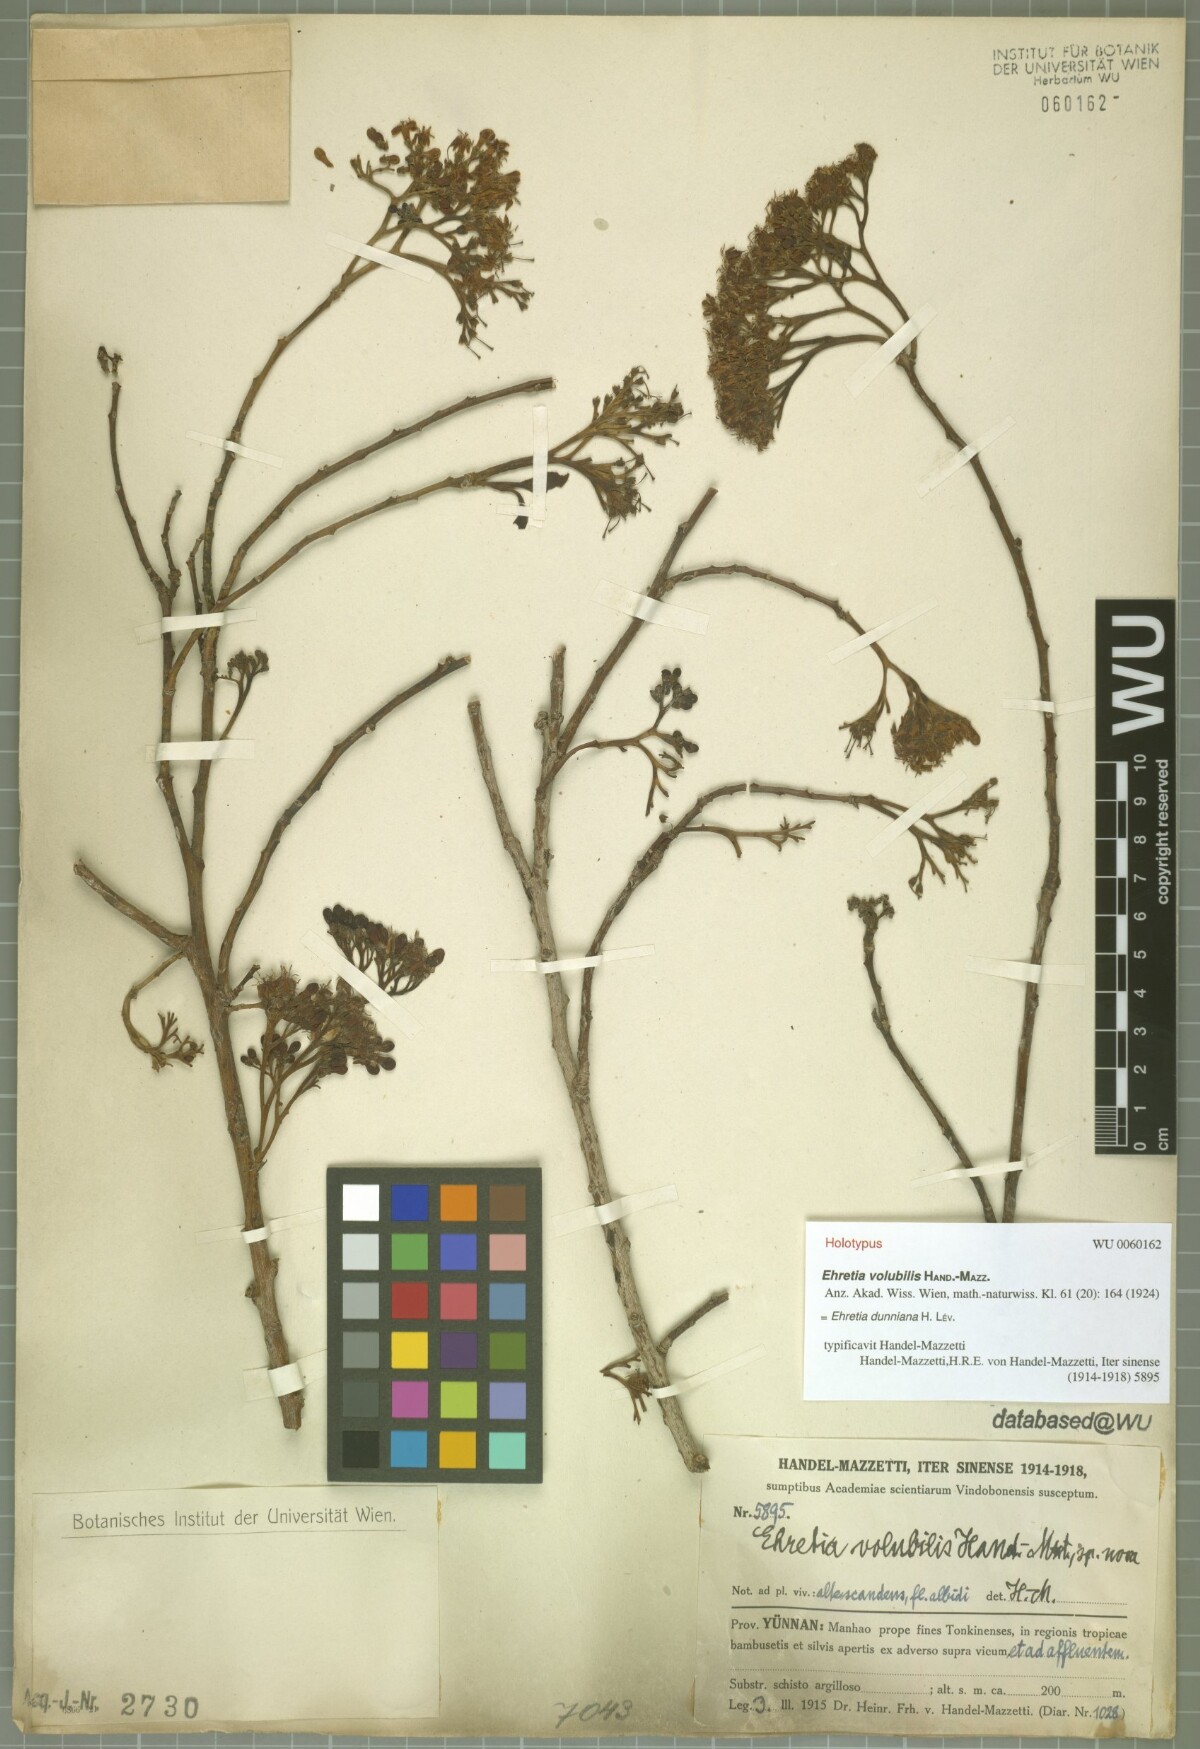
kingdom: Plantae
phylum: Tracheophyta
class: Magnoliopsida
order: Boraginales
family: Ehretiaceae
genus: Ehretia
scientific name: Ehretia dunniana
